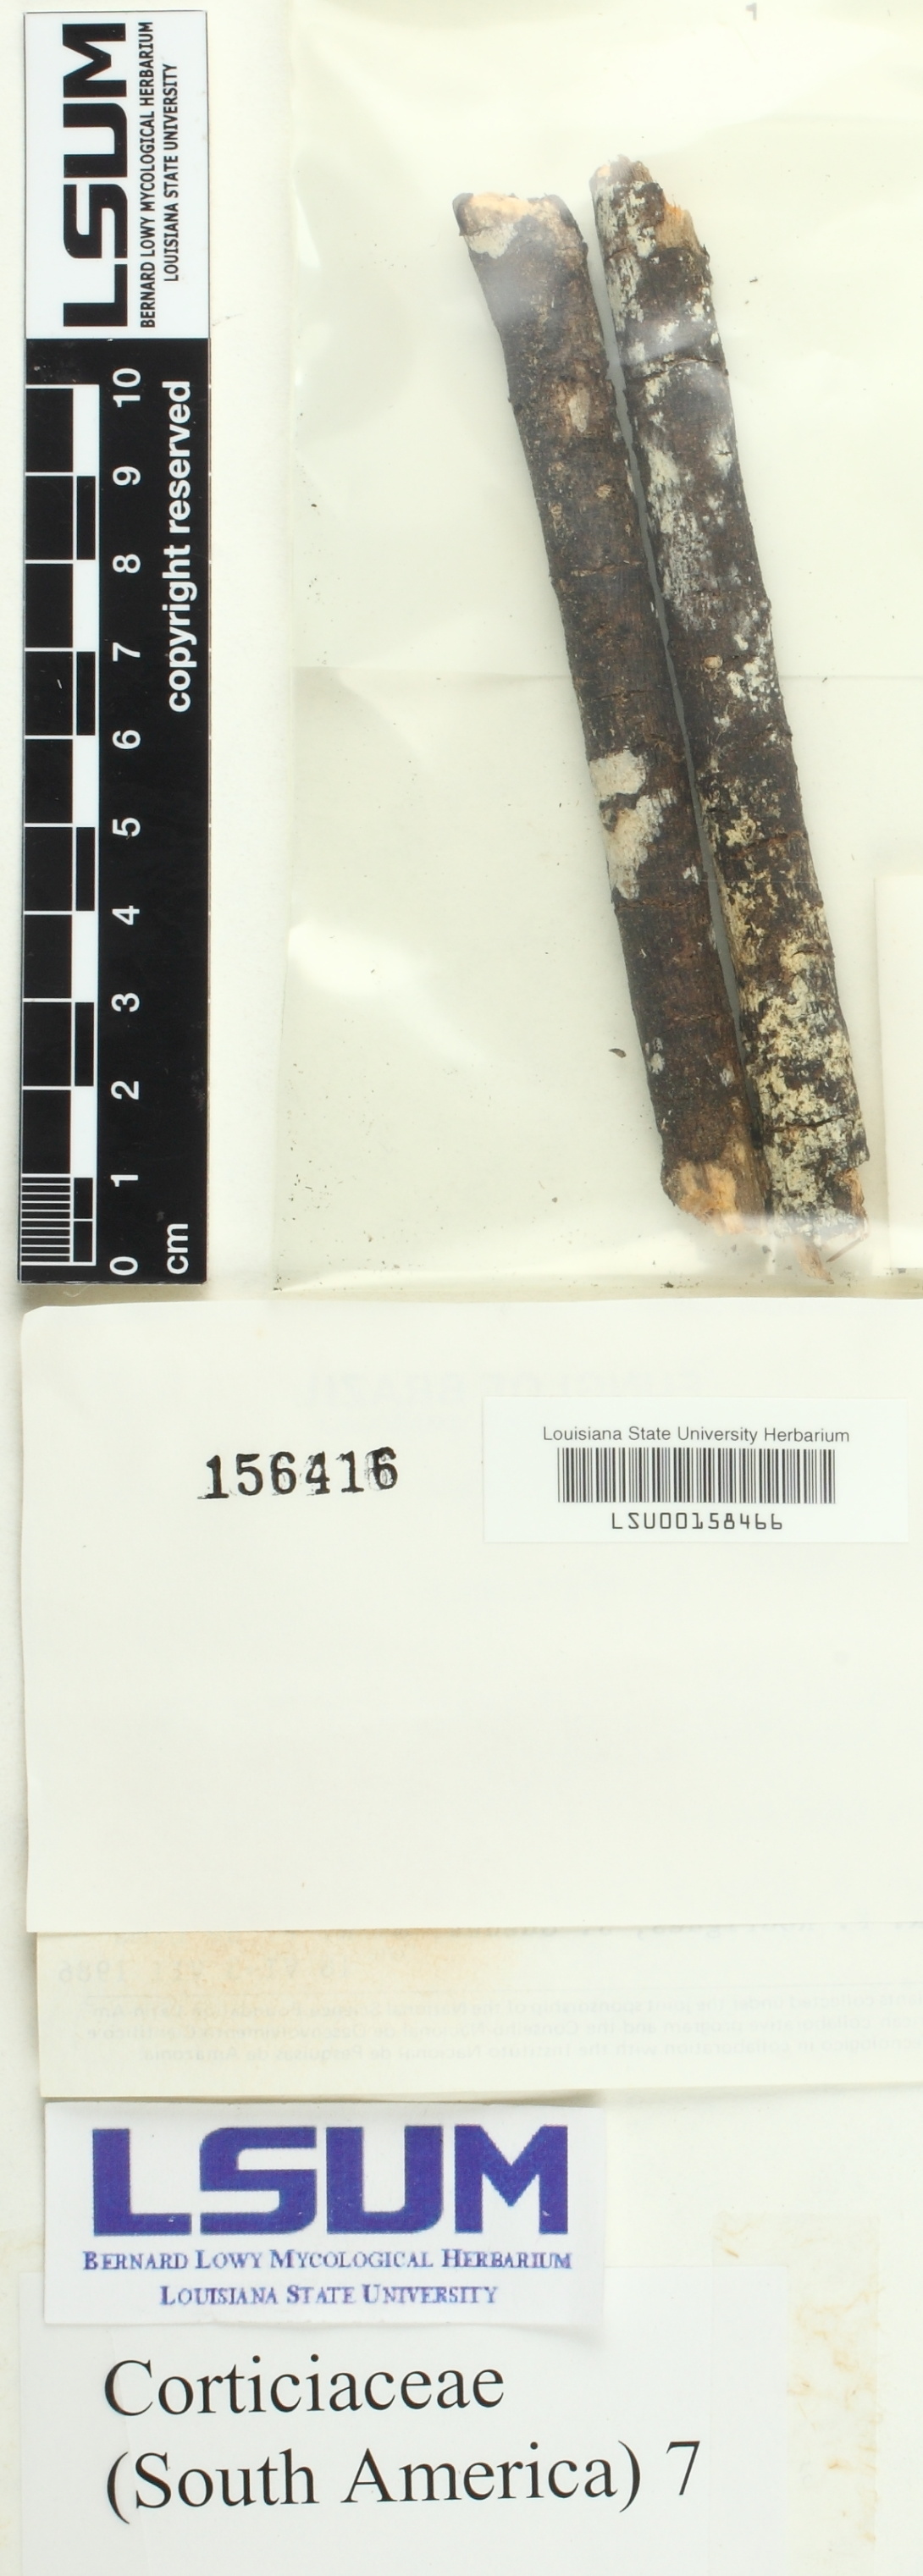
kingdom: Fungi
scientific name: Fungi
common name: Fungi
